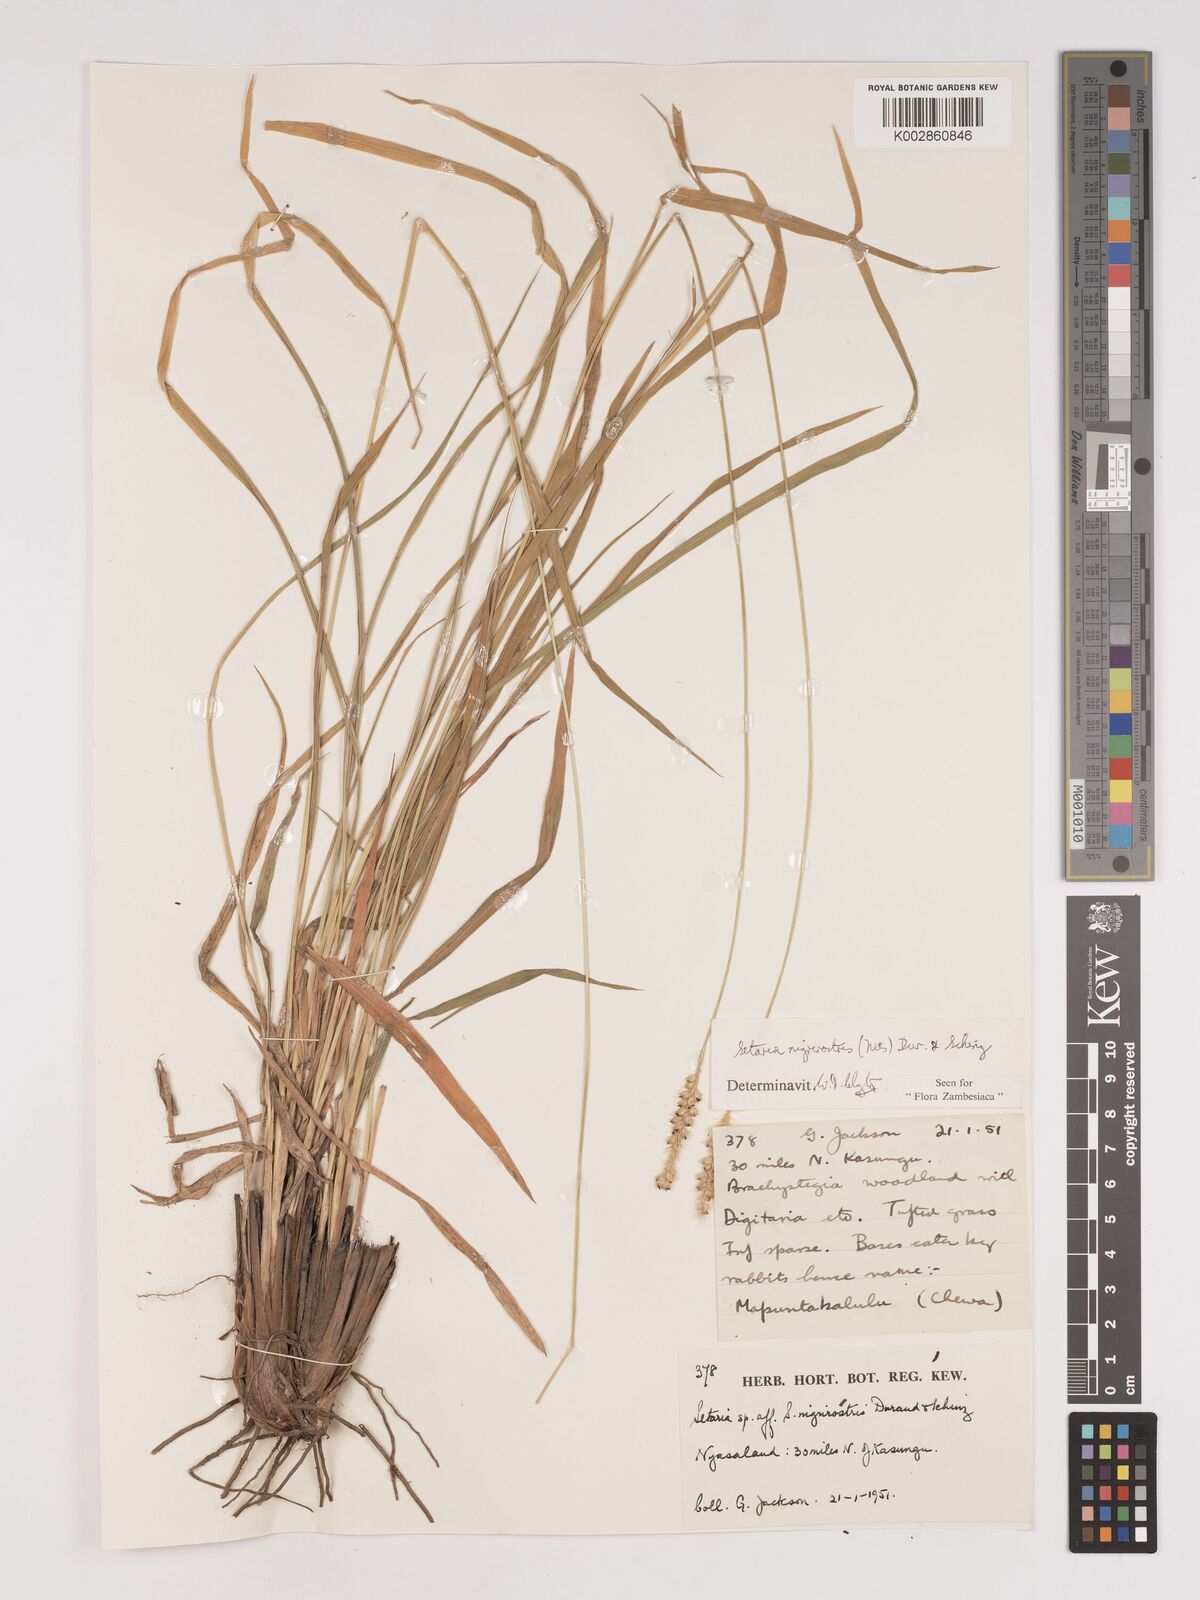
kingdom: Plantae
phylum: Tracheophyta
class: Liliopsida
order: Poales
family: Poaceae
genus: Setaria
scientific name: Setaria nigrirostris
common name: Black bristlegrass
